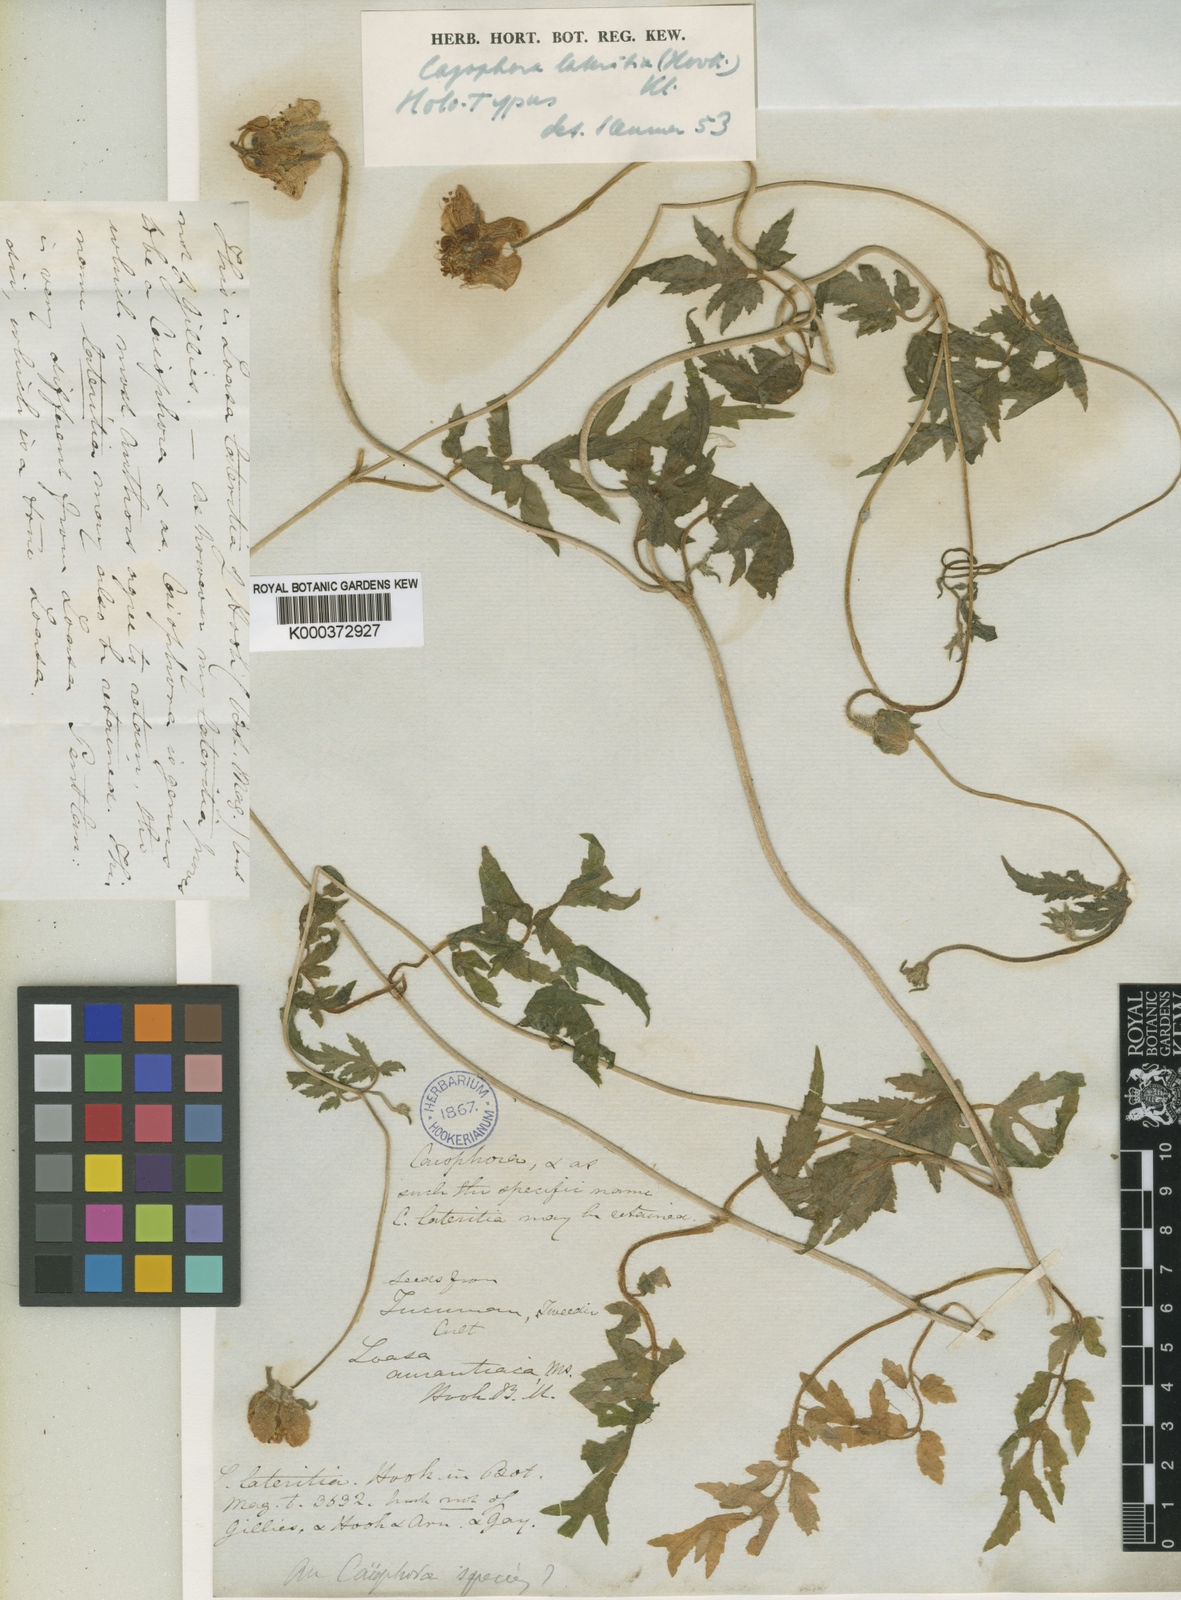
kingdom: Plantae
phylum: Tracheophyta
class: Magnoliopsida
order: Cornales
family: Loasaceae
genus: Caiophora
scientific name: Caiophora
